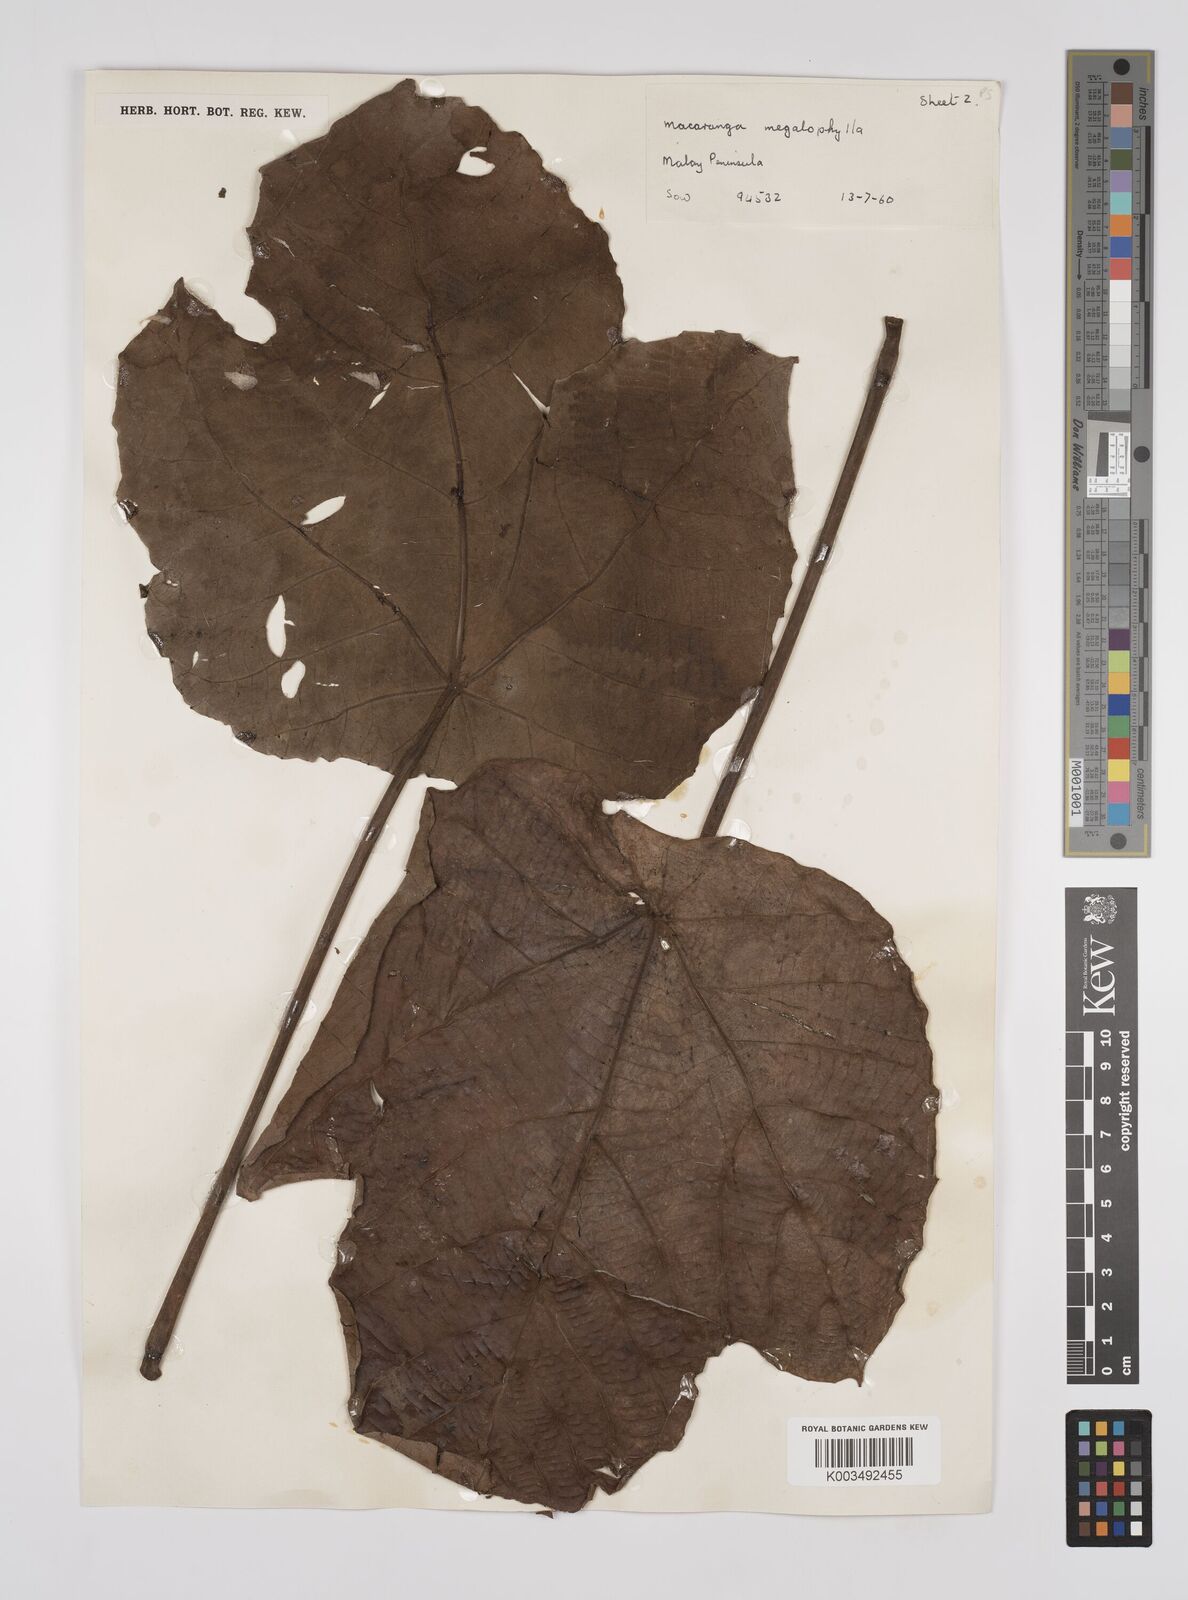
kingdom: Plantae
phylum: Tracheophyta
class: Magnoliopsida
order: Malpighiales
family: Euphorbiaceae
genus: Macaranga
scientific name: Macaranga gigantea
